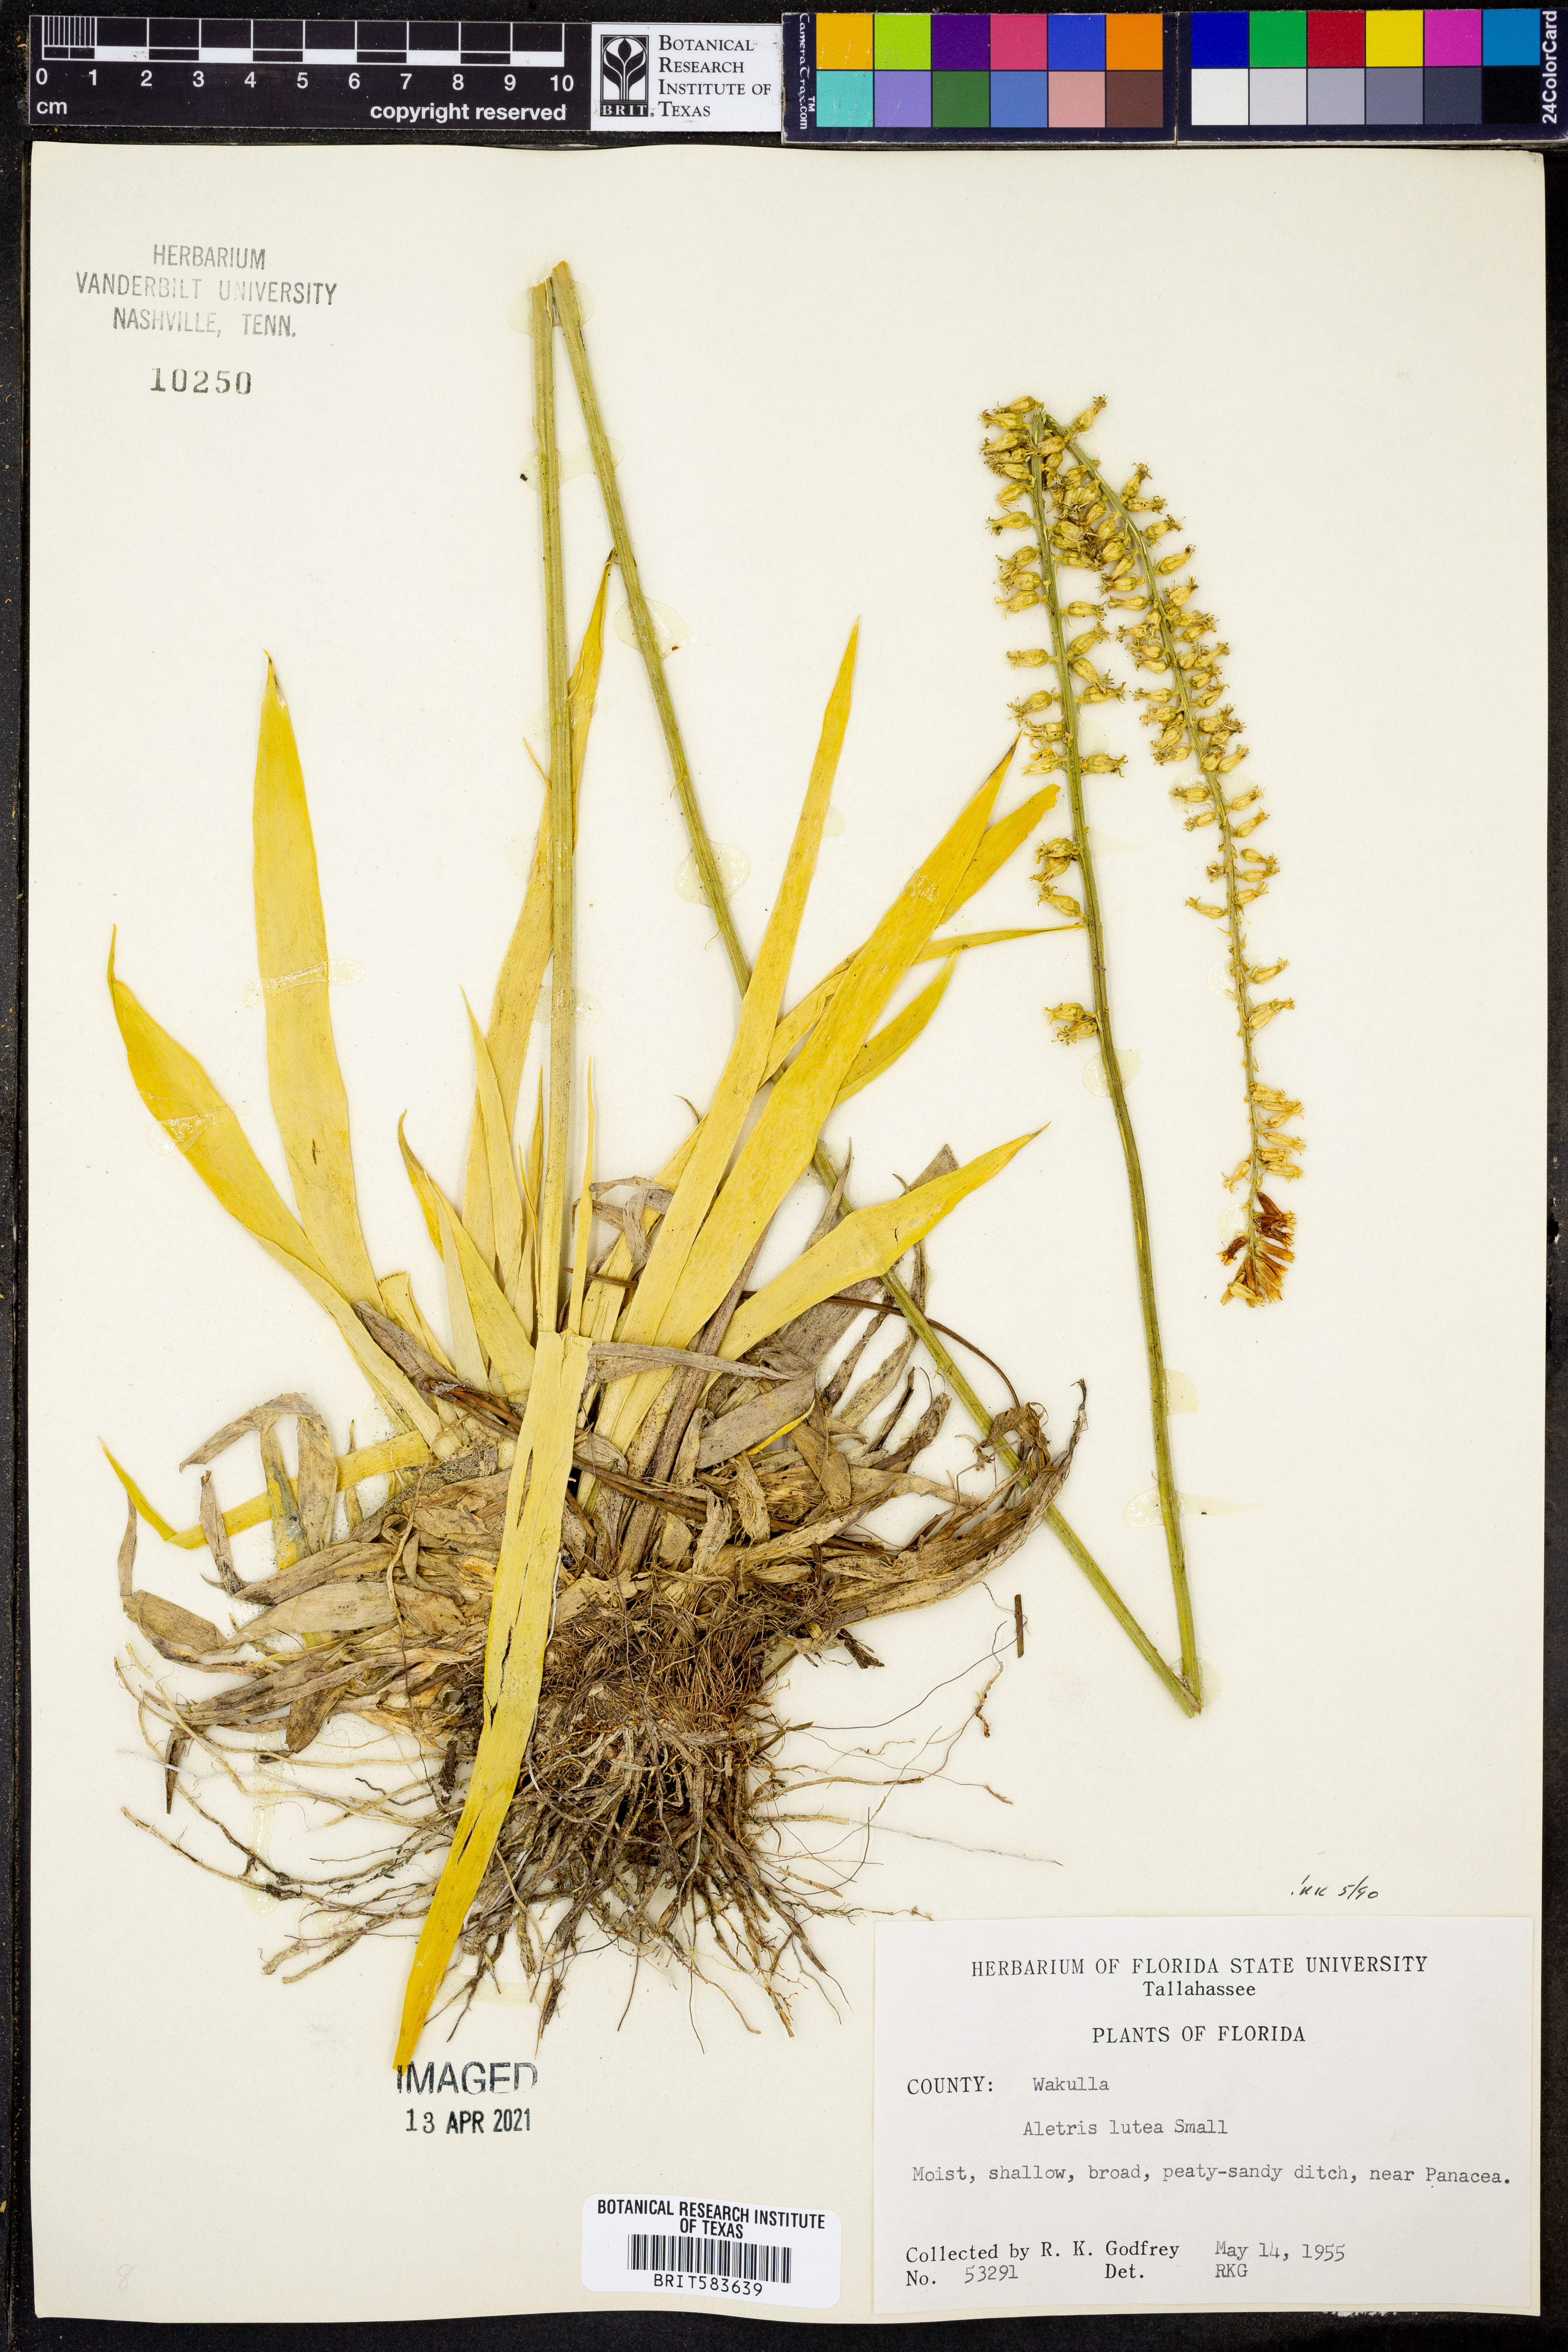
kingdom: Plantae
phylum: Tracheophyta
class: Liliopsida
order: Dioscoreales
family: Nartheciaceae
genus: Aletris
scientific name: Aletris lutea
